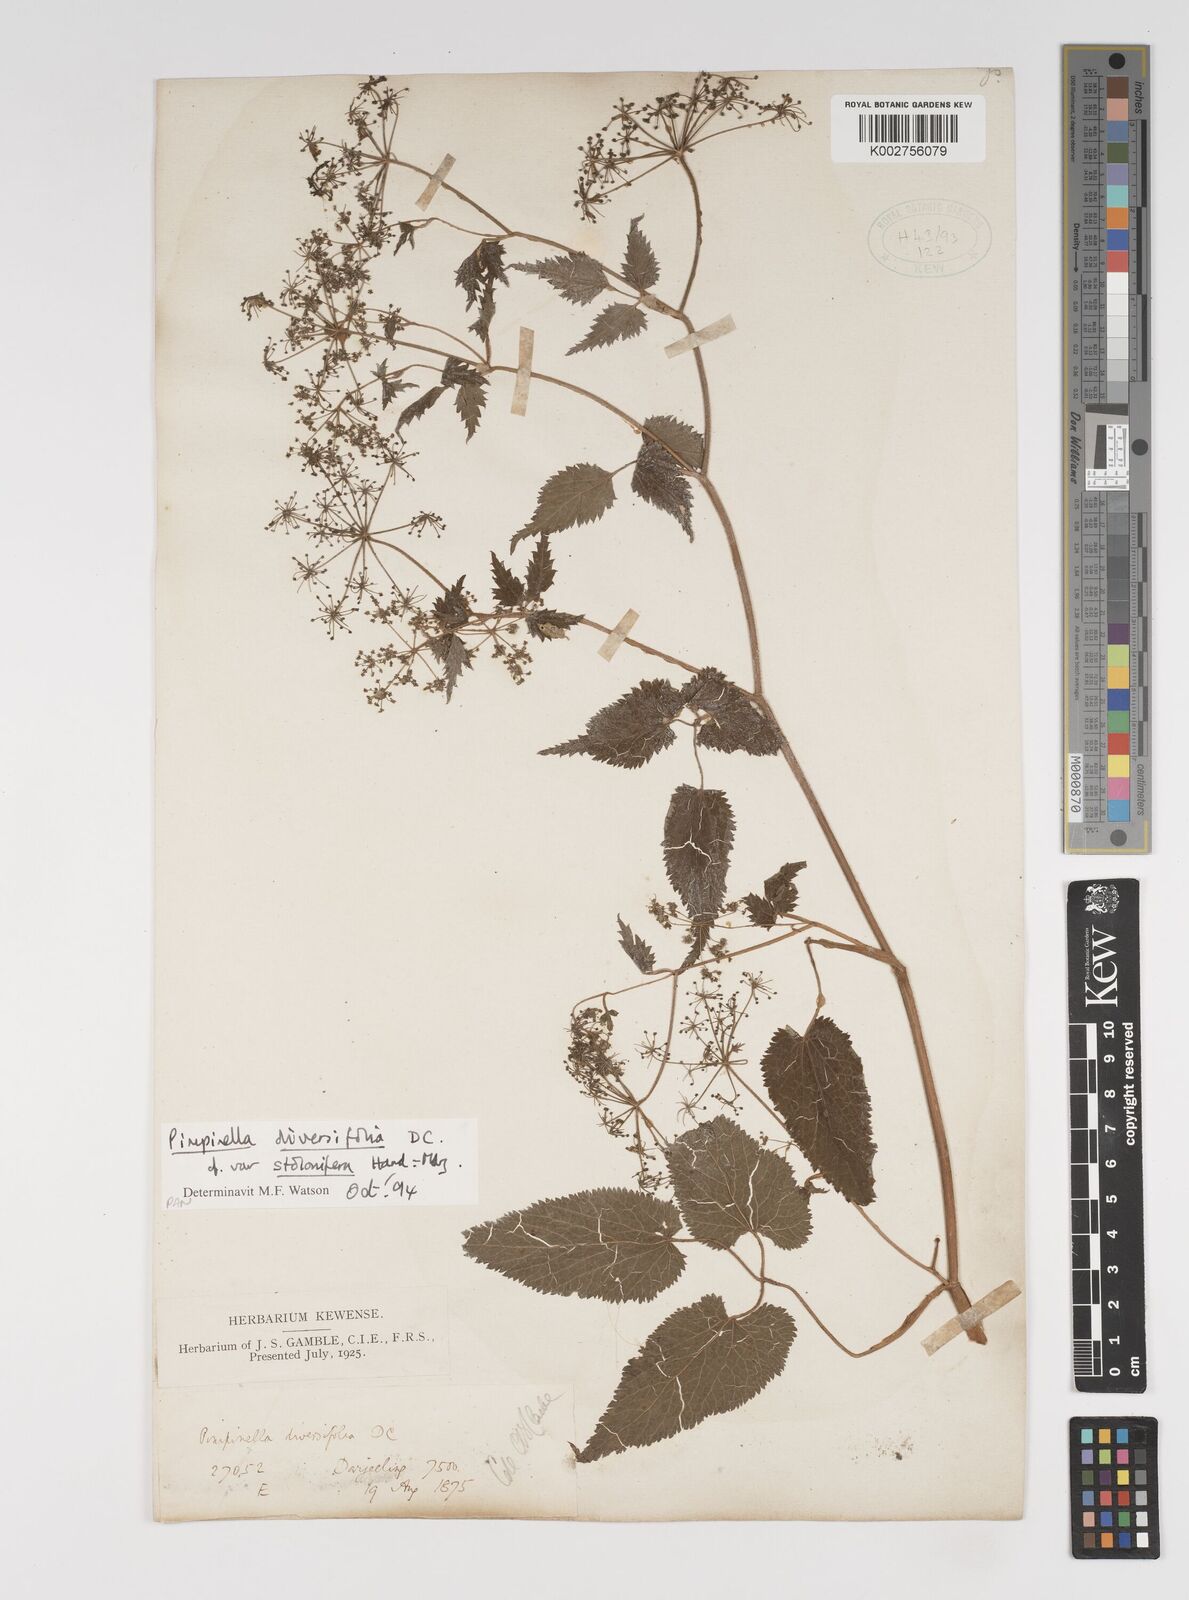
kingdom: Plantae
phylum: Tracheophyta
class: Magnoliopsida
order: Apiales
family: Apiaceae
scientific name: Apiaceae
